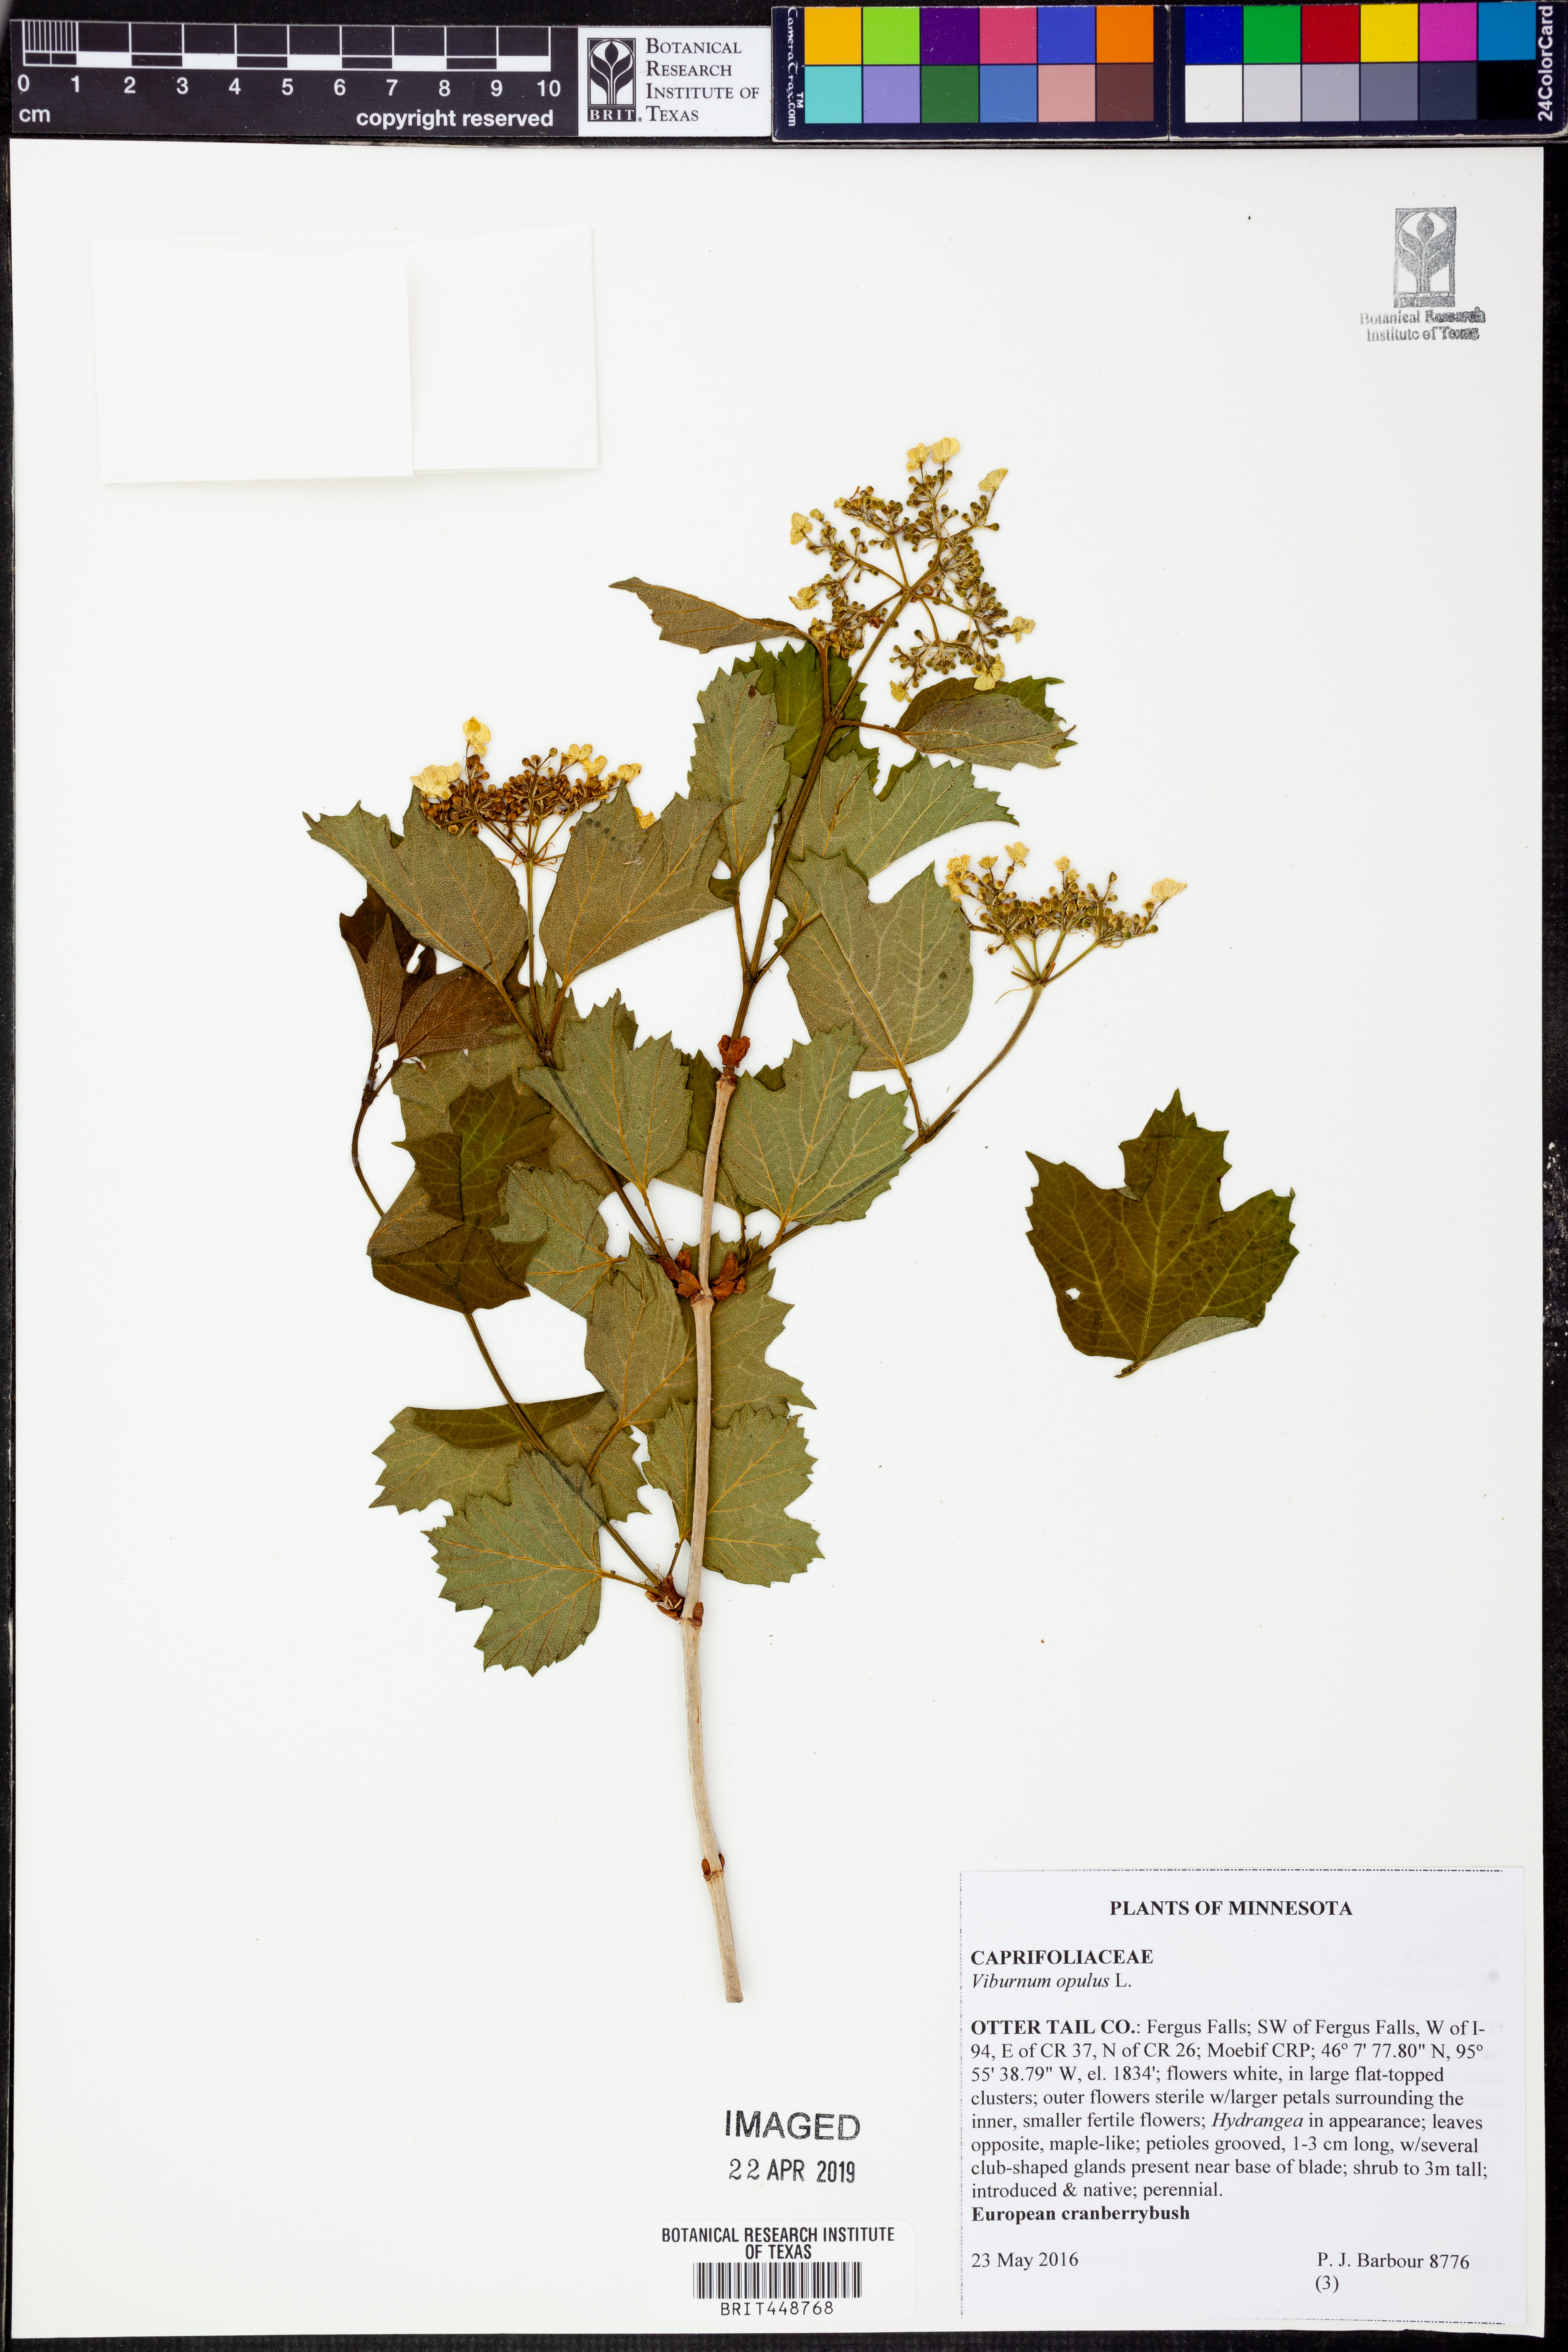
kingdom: Plantae
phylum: Tracheophyta
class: Magnoliopsida
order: Dipsacales
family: Viburnaceae
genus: Viburnum
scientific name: Viburnum opulus
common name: Guelder-rose
